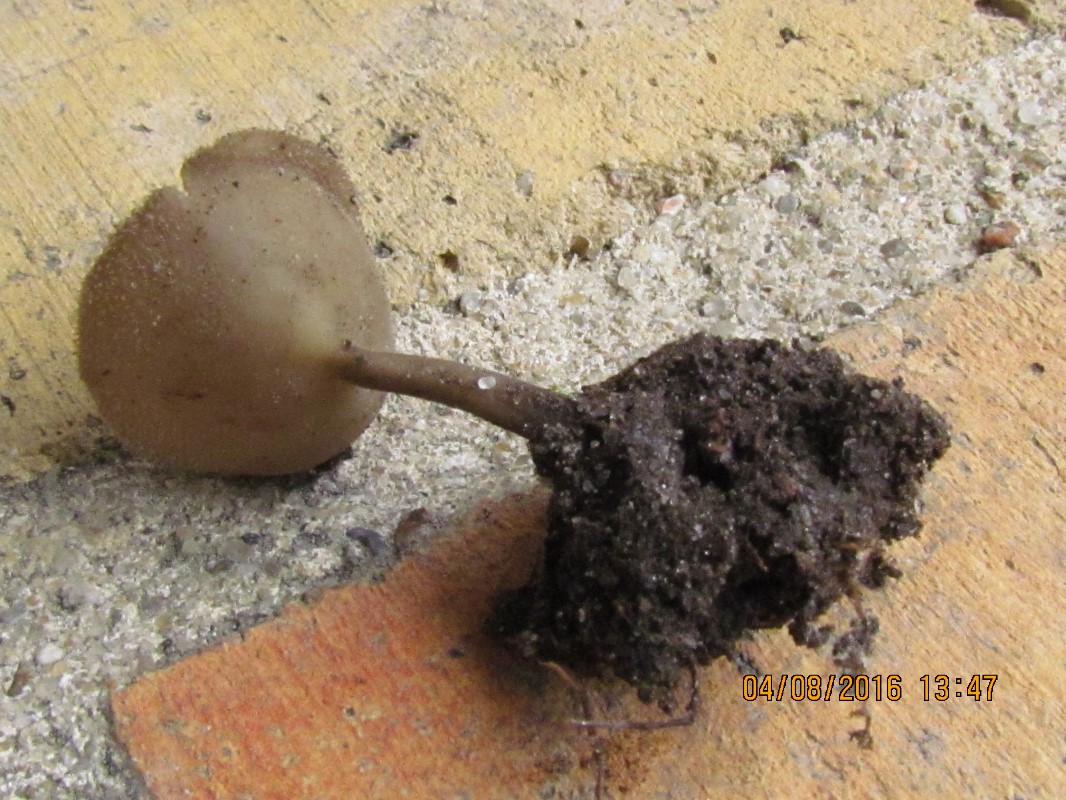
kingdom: Fungi
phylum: Ascomycota
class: Pezizomycetes
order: Pezizales
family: Helvellaceae
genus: Helvella
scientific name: Helvella
